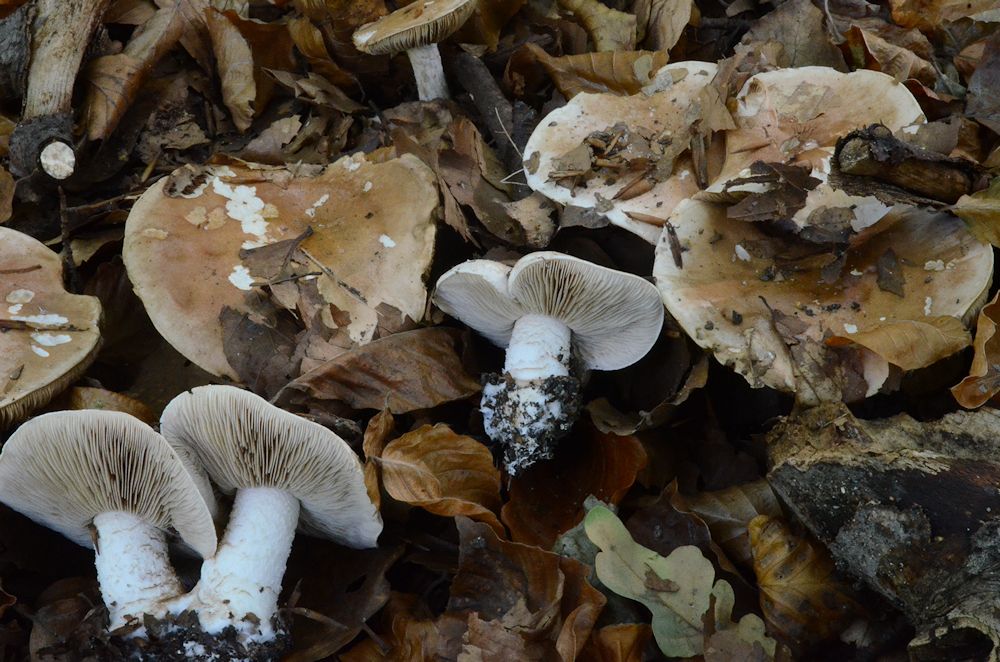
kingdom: Fungi
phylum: Basidiomycota
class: Agaricomycetes
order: Agaricales
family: Hymenogastraceae
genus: Hebeloma
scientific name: Hebeloma sinapizans
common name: ræddike-tåreblad
